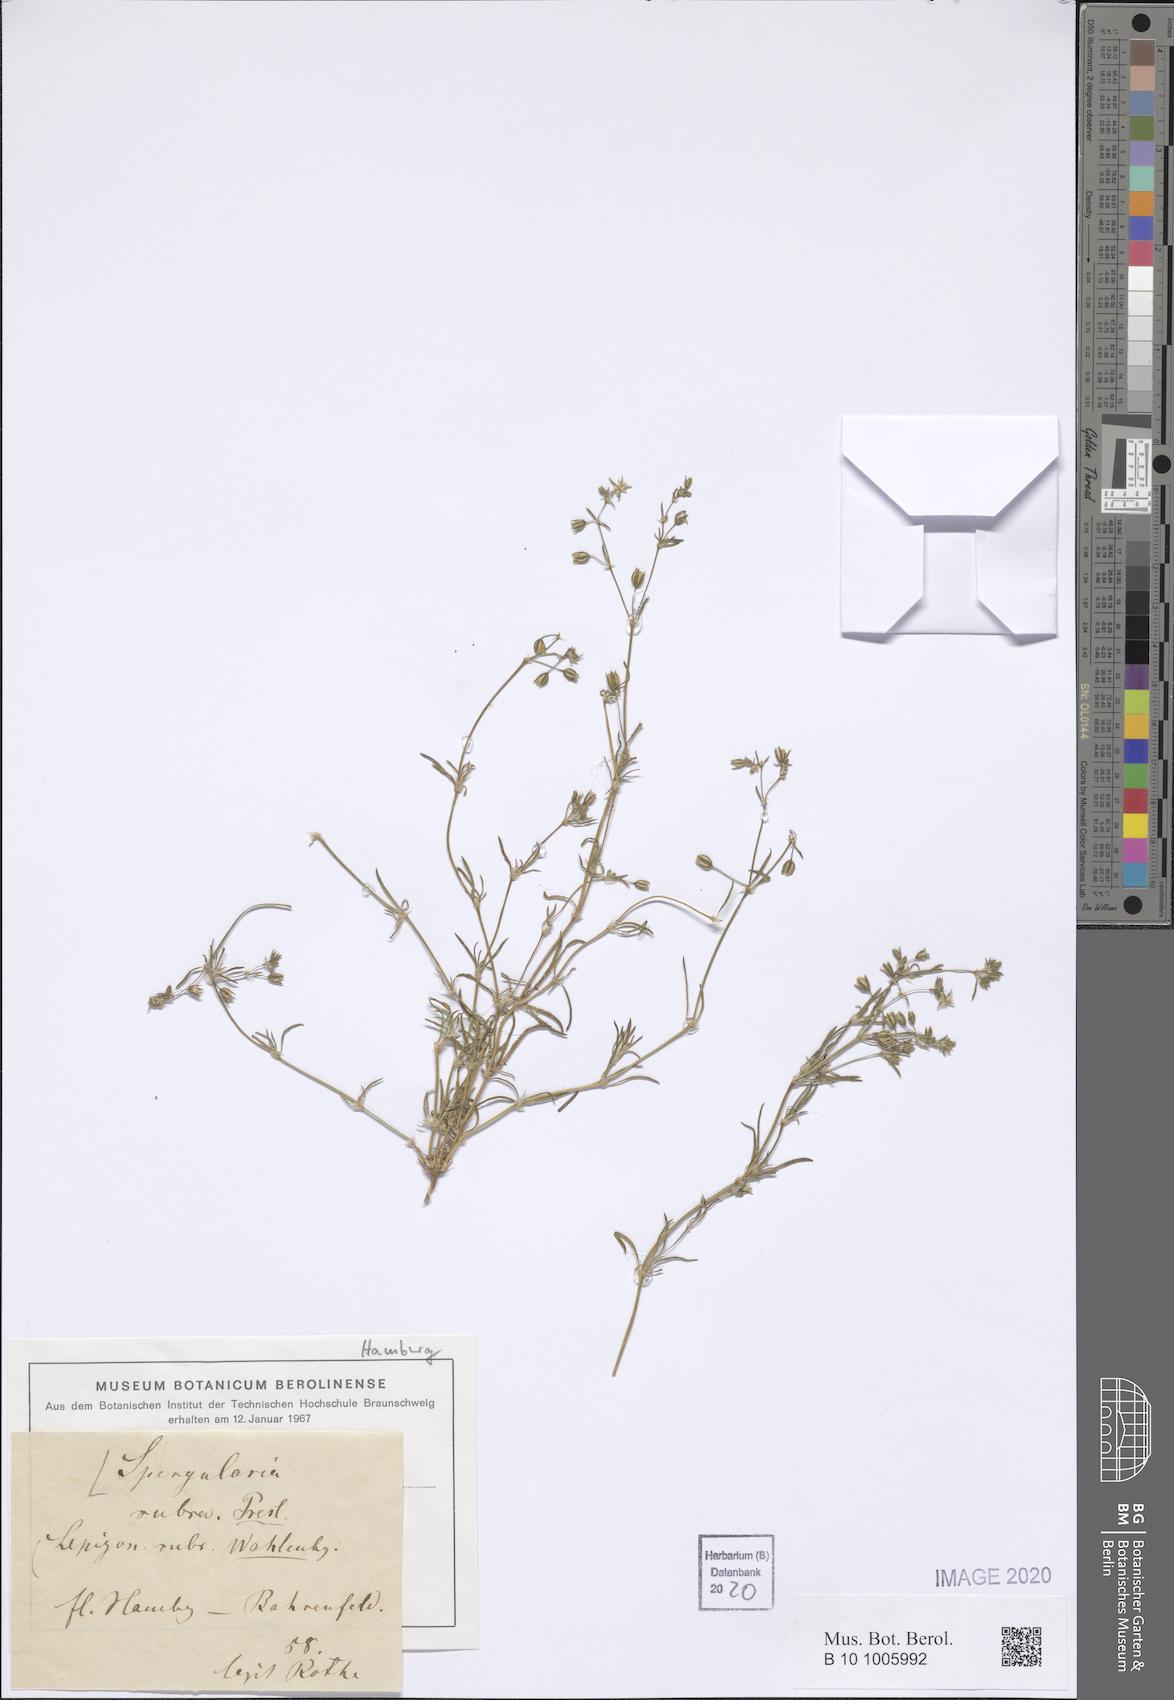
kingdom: Plantae
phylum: Tracheophyta
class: Magnoliopsida
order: Caryophyllales
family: Caryophyllaceae
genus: Spergularia
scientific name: Spergularia rubra
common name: Red sand-spurrey
